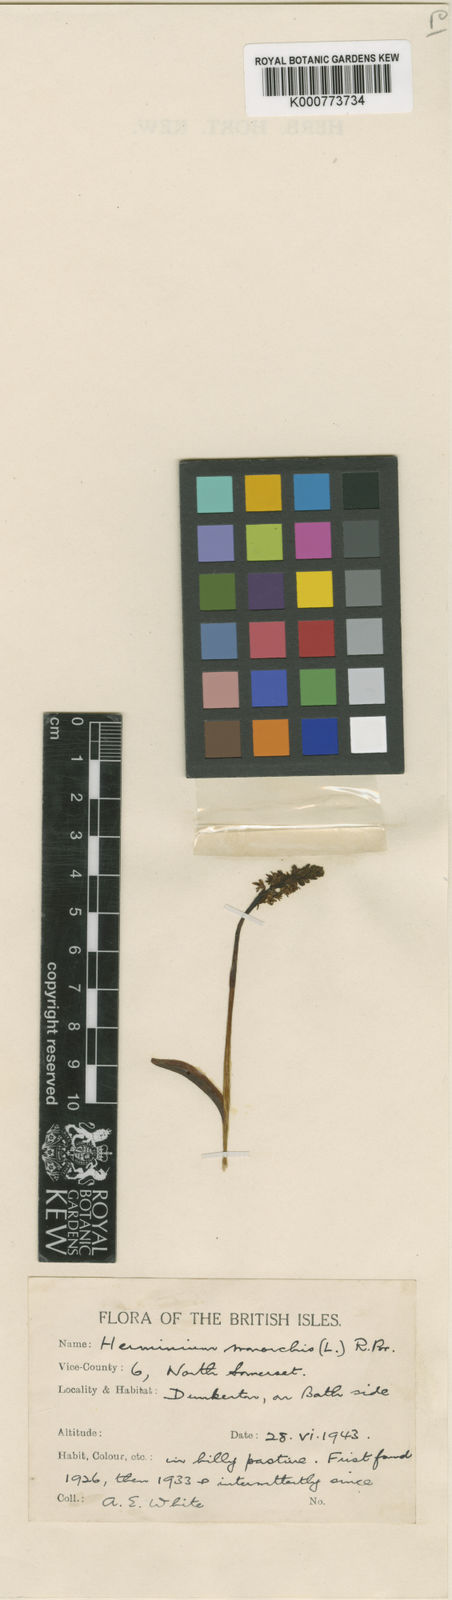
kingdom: Plantae
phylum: Tracheophyta
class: Liliopsida
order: Asparagales
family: Orchidaceae
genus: Herminium
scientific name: Herminium monorchis
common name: Musk orchid
